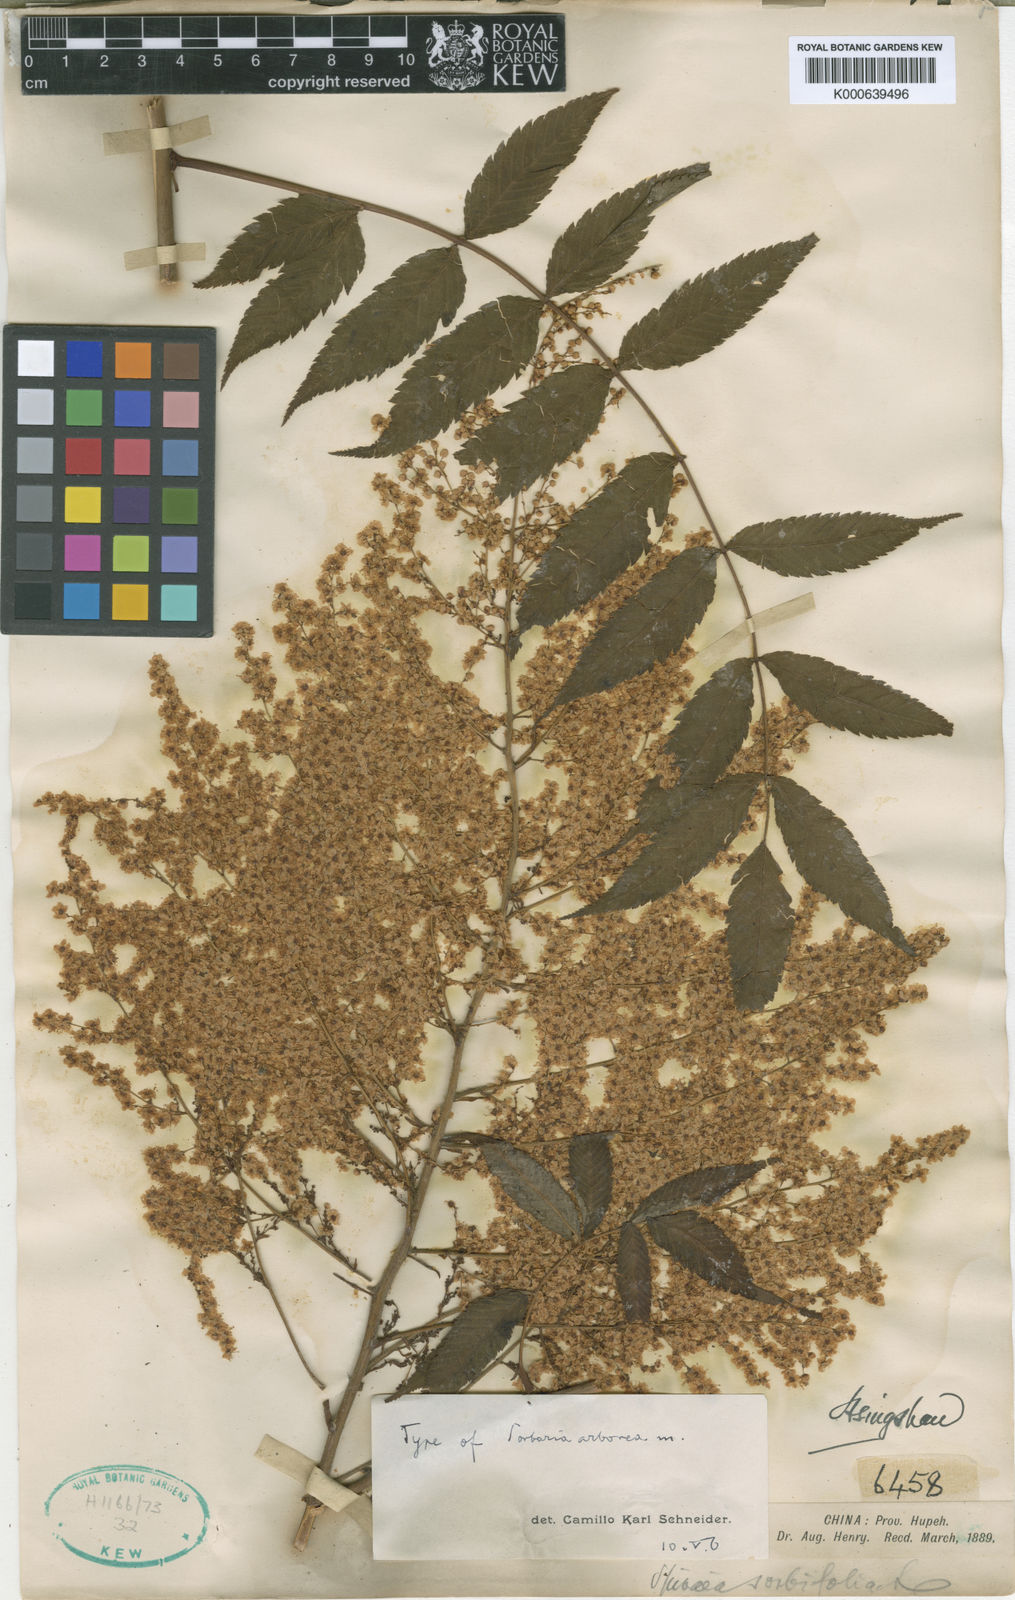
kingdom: Plantae
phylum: Tracheophyta
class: Magnoliopsida
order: Rosales
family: Rosaceae
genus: Sorbaria
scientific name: Sorbaria kirilowii
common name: Chinese sorbaria
